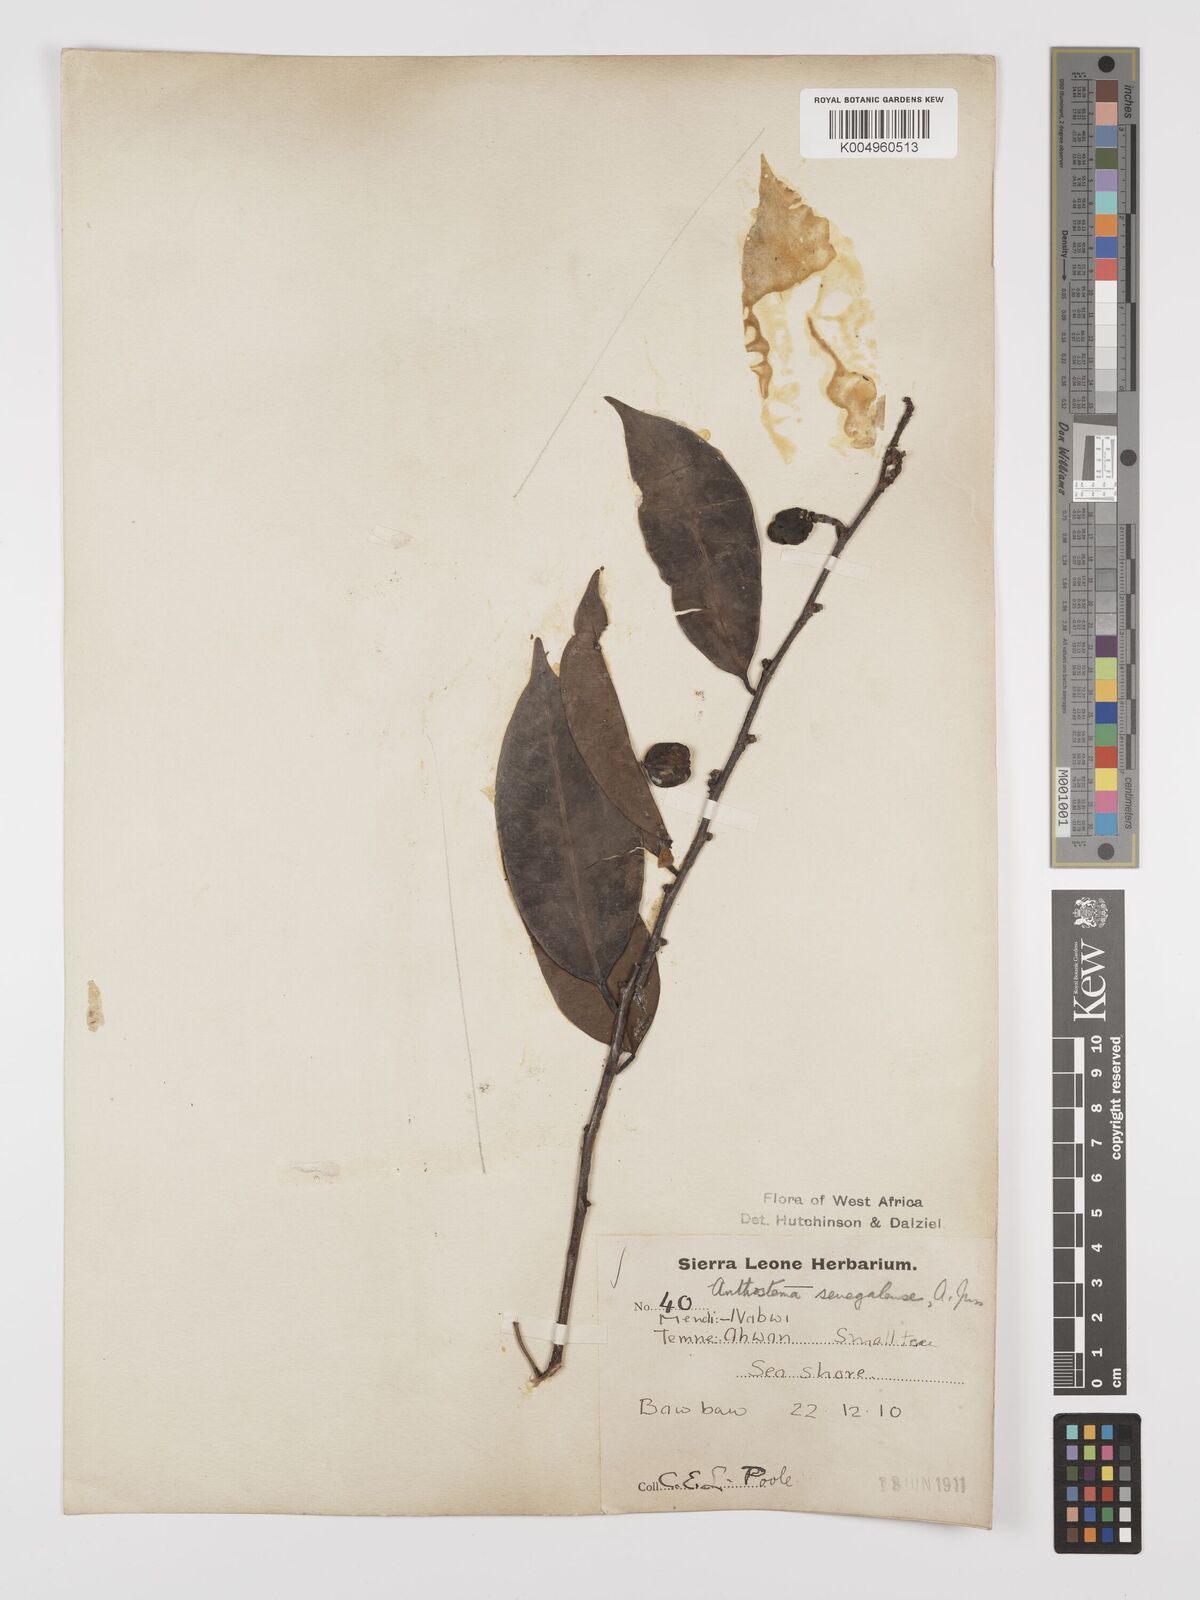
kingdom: Plantae
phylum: Tracheophyta
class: Magnoliopsida
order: Malpighiales
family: Euphorbiaceae
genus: Anthostema
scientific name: Anthostema senegalense
